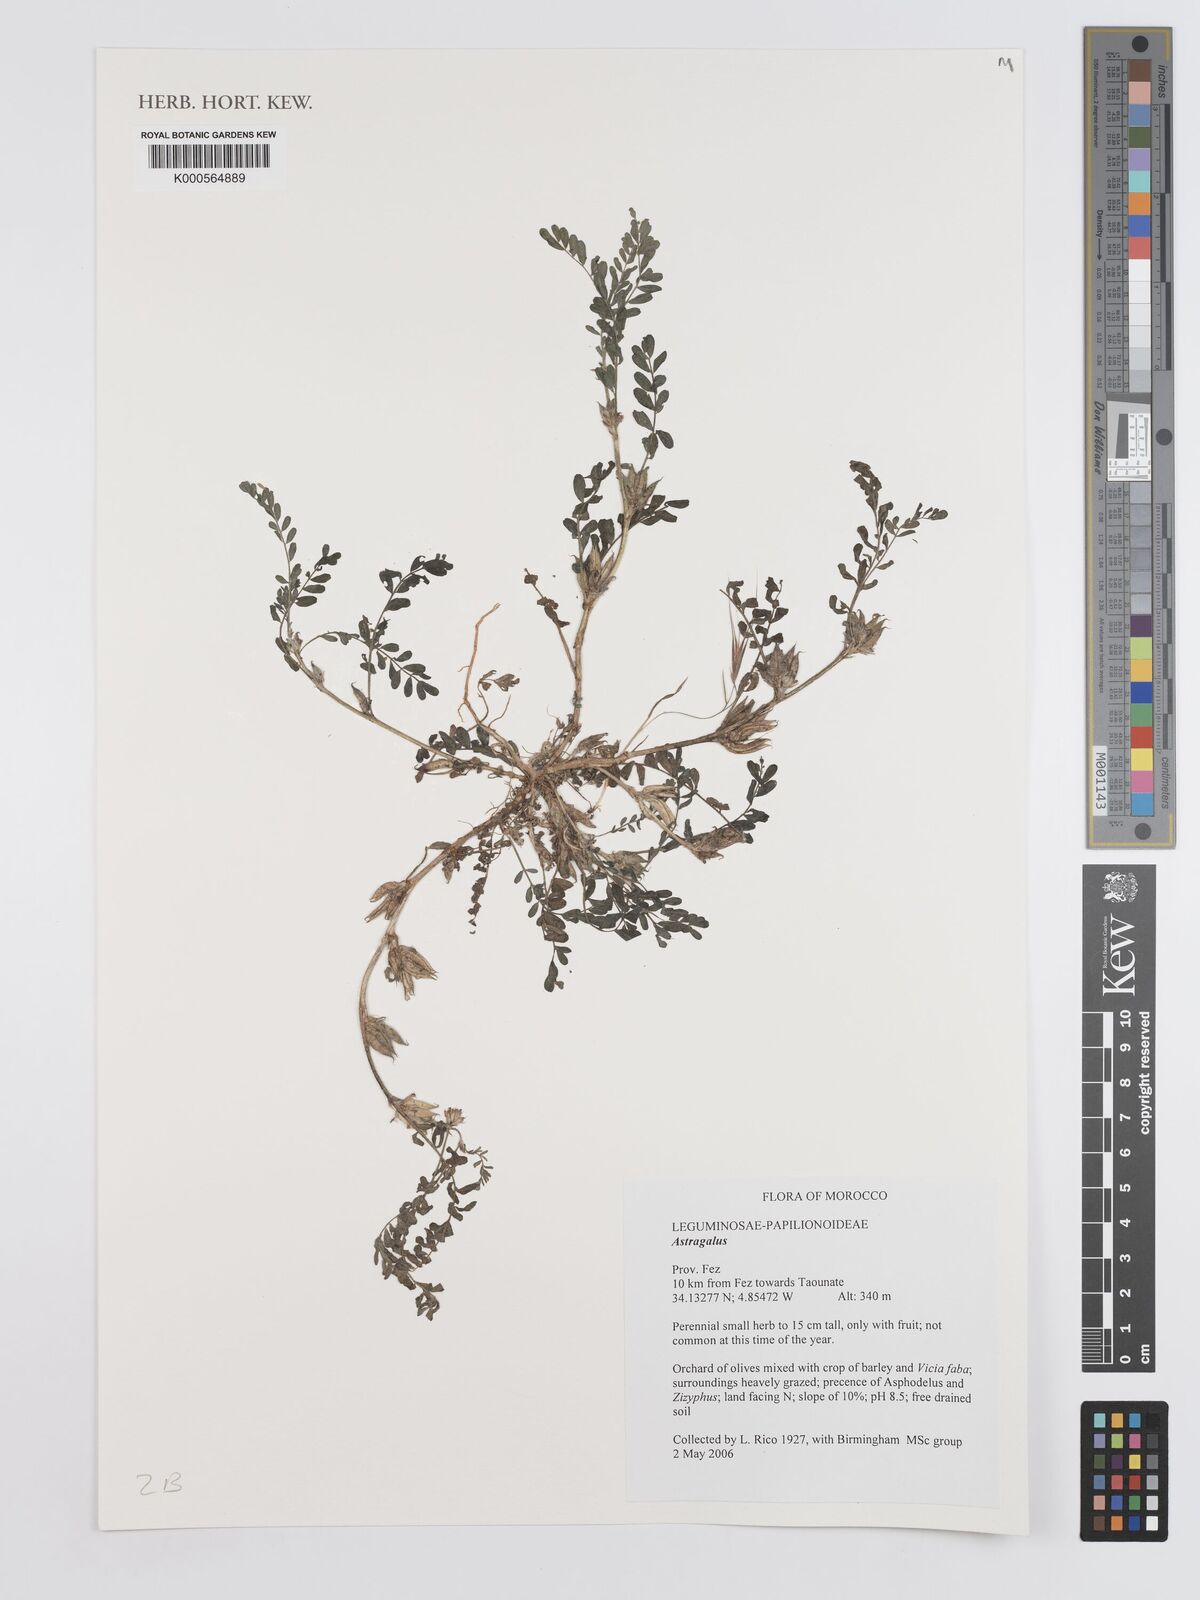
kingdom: Plantae
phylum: Tracheophyta
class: Magnoliopsida
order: Fabales
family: Fabaceae
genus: Astragalus
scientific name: Astragalus
